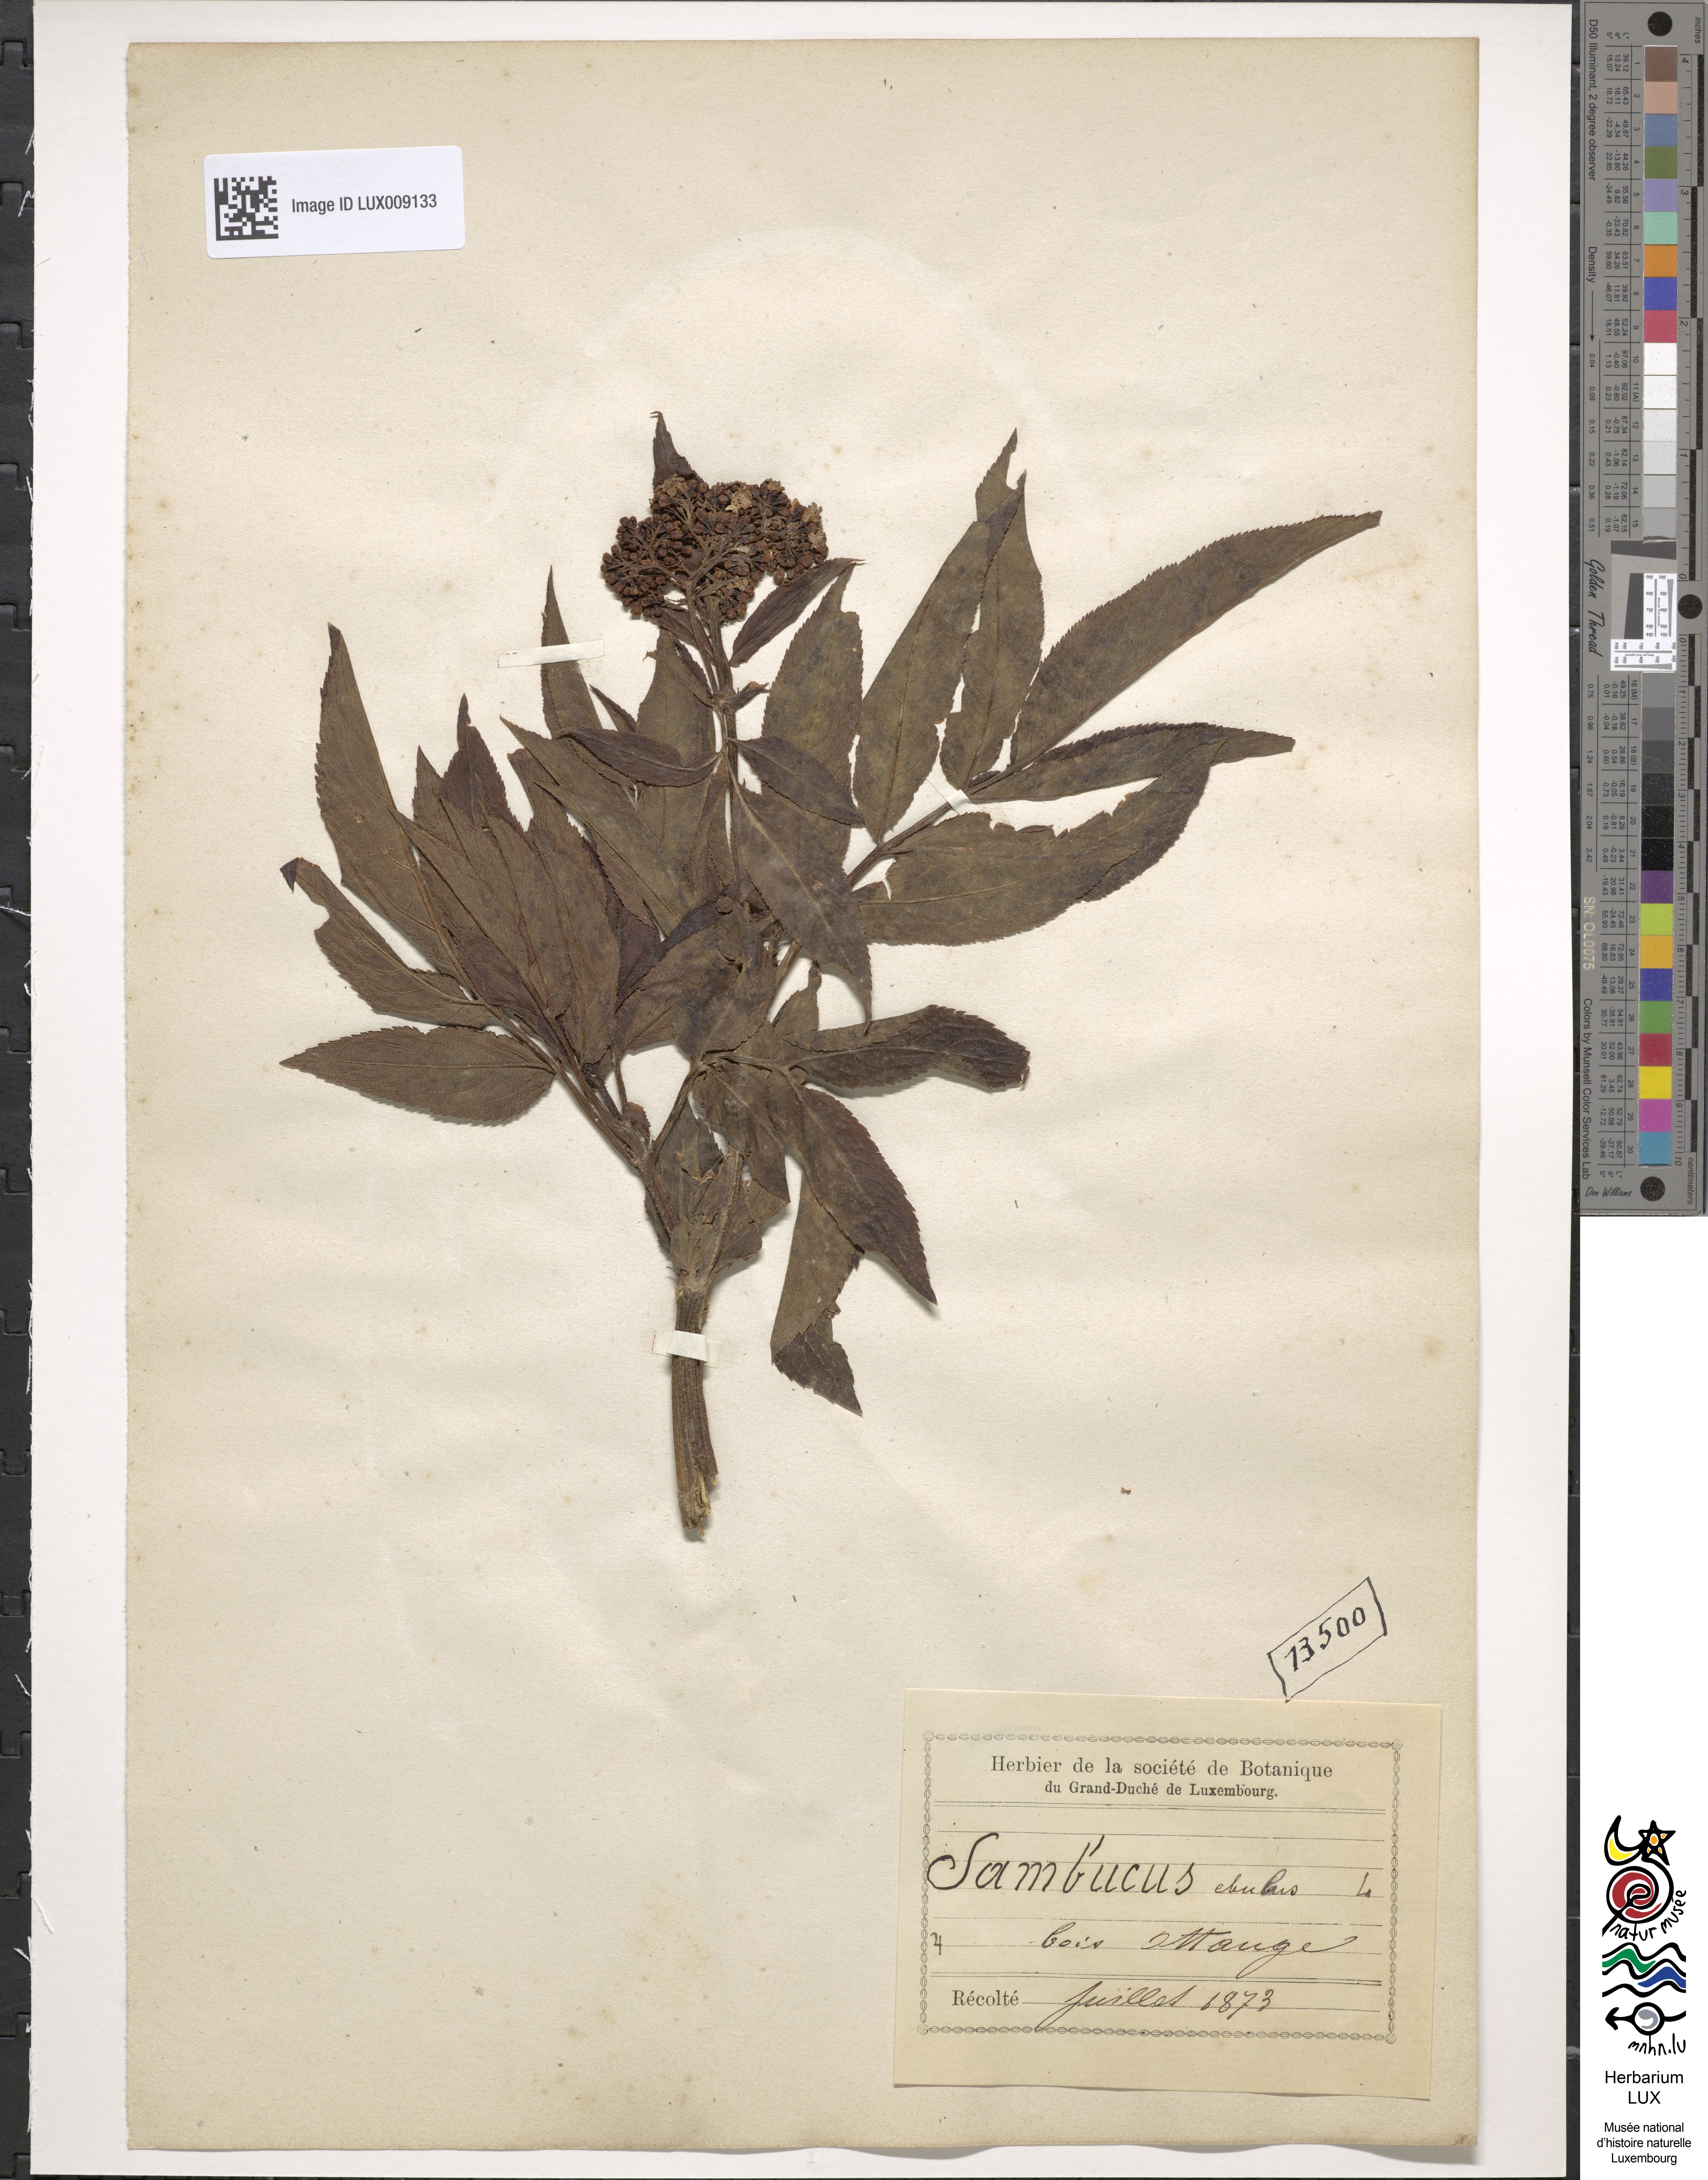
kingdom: Plantae
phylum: Tracheophyta
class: Magnoliopsida
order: Dipsacales
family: Viburnaceae
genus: Sambucus
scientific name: Sambucus ebulus
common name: Dwarf elder
